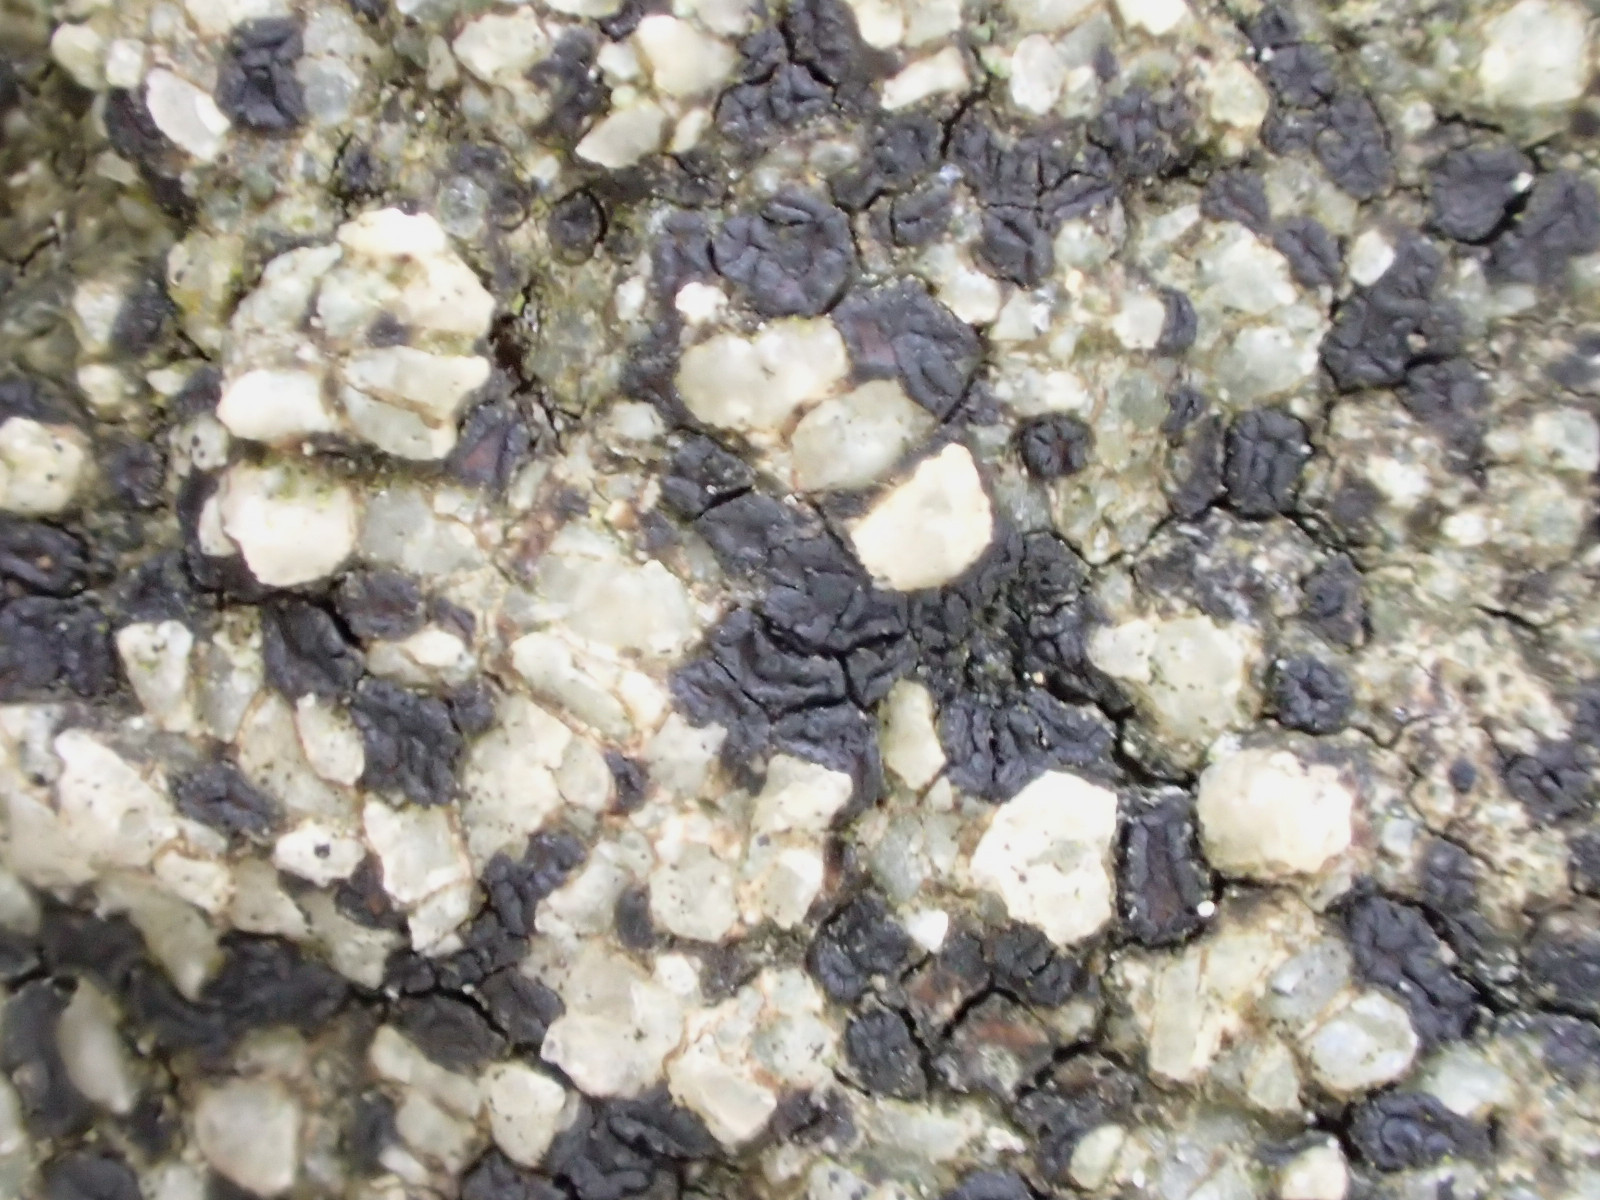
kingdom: Fungi
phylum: Ascomycota
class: Lecanoromycetes
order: Acarosporales
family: Acarosporaceae
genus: Acarospora
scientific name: Acarospora privigna
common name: sort foldekantlav
